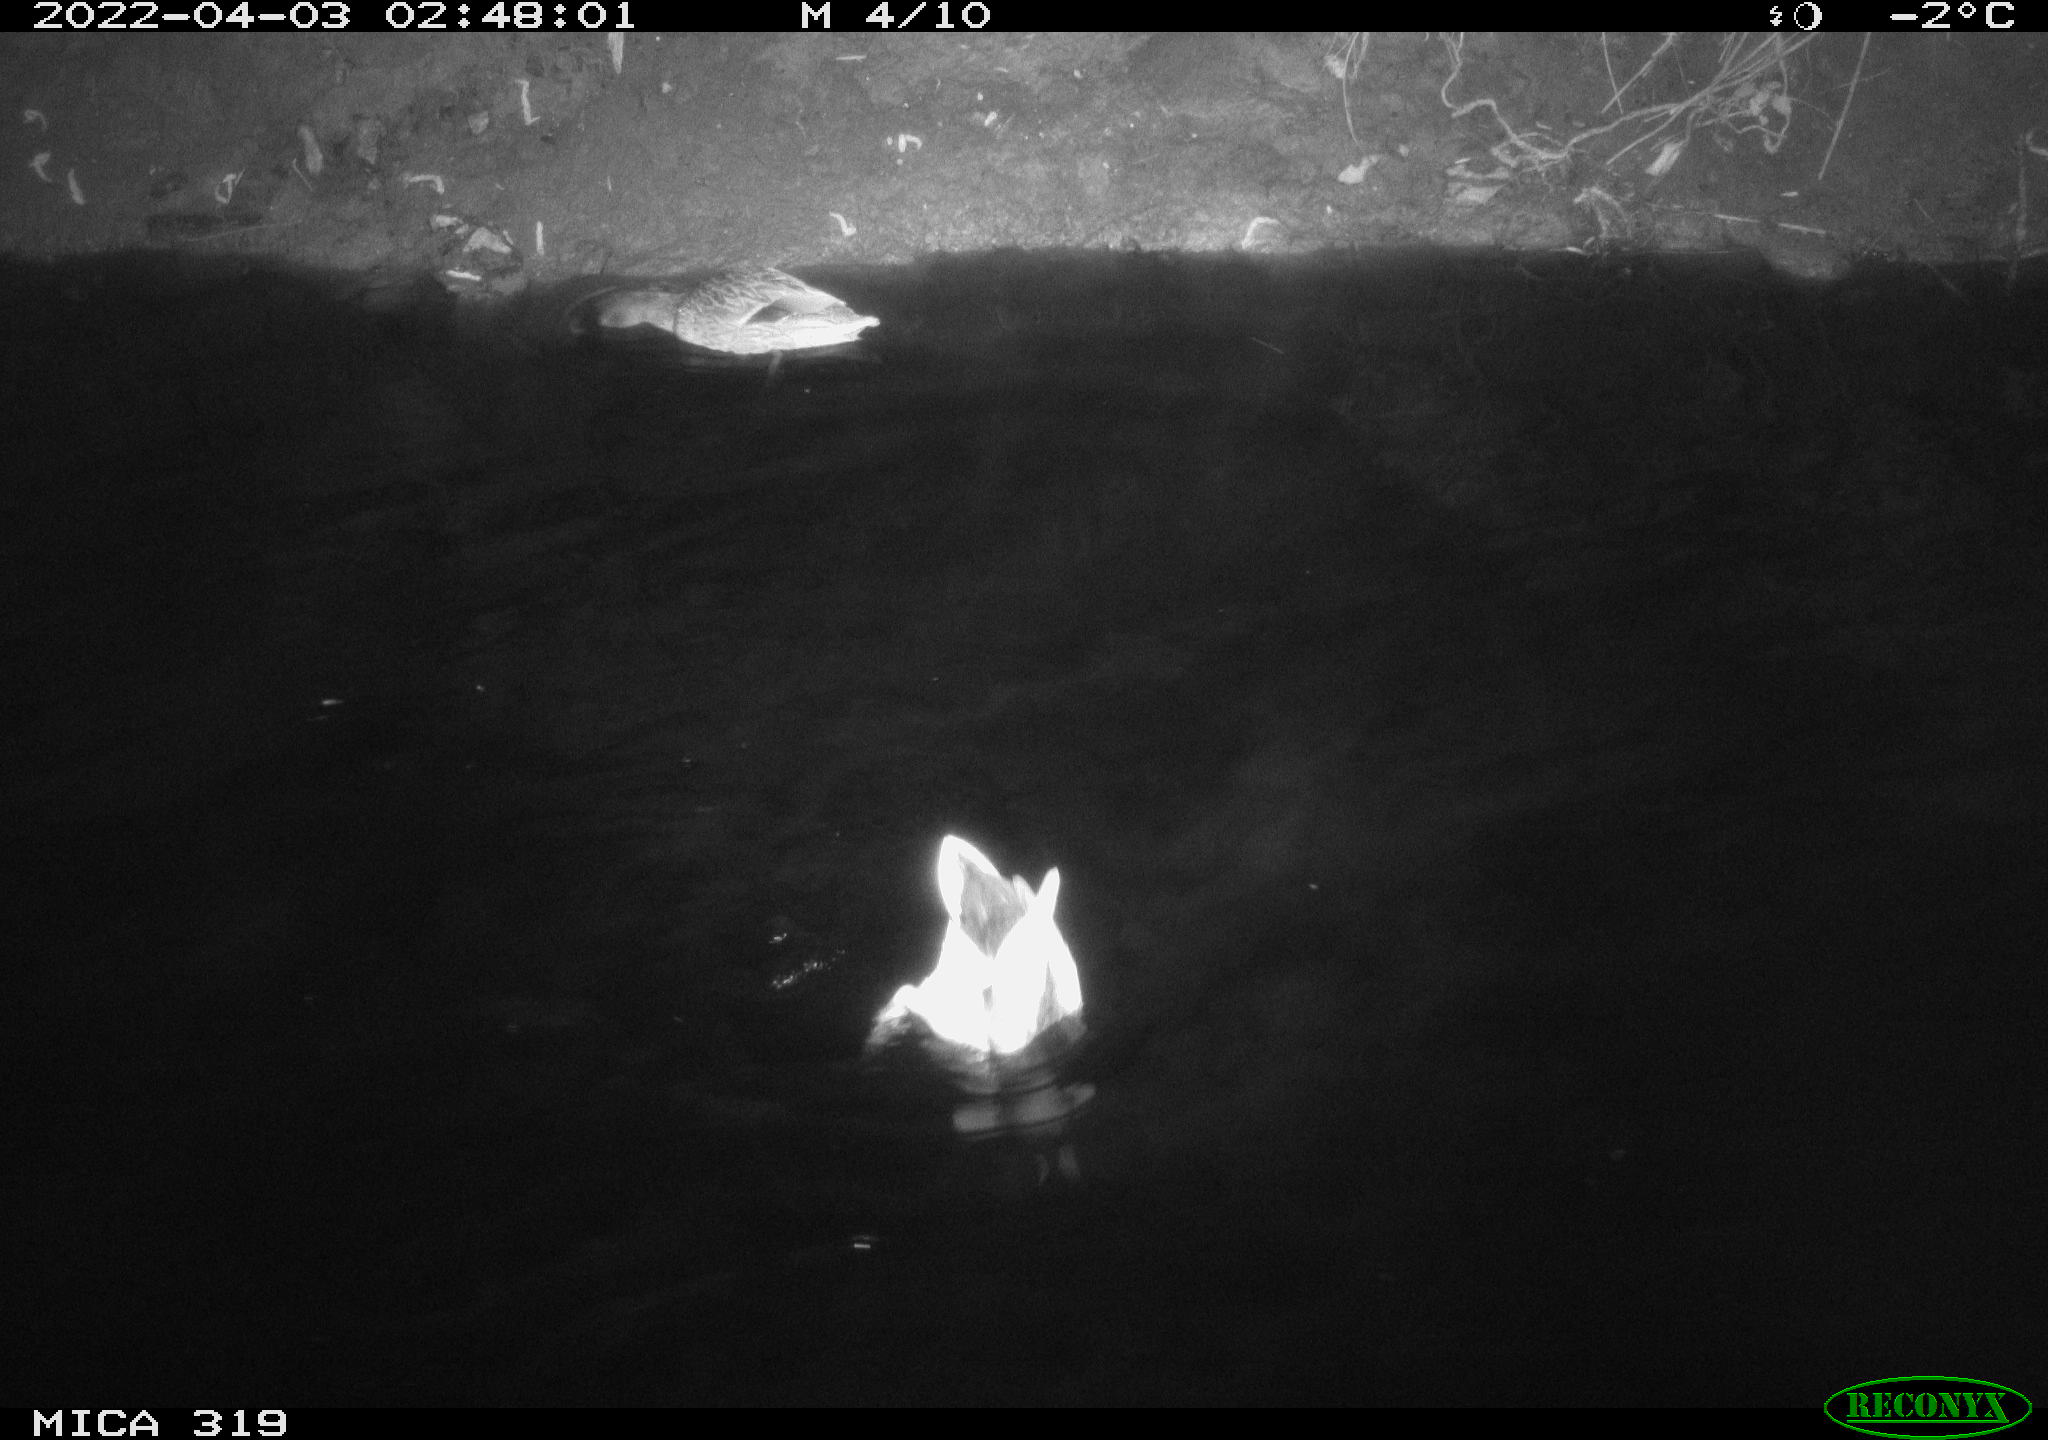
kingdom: Animalia
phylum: Chordata
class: Aves
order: Anseriformes
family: Anatidae
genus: Anas
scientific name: Anas platyrhynchos
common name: Mallard
